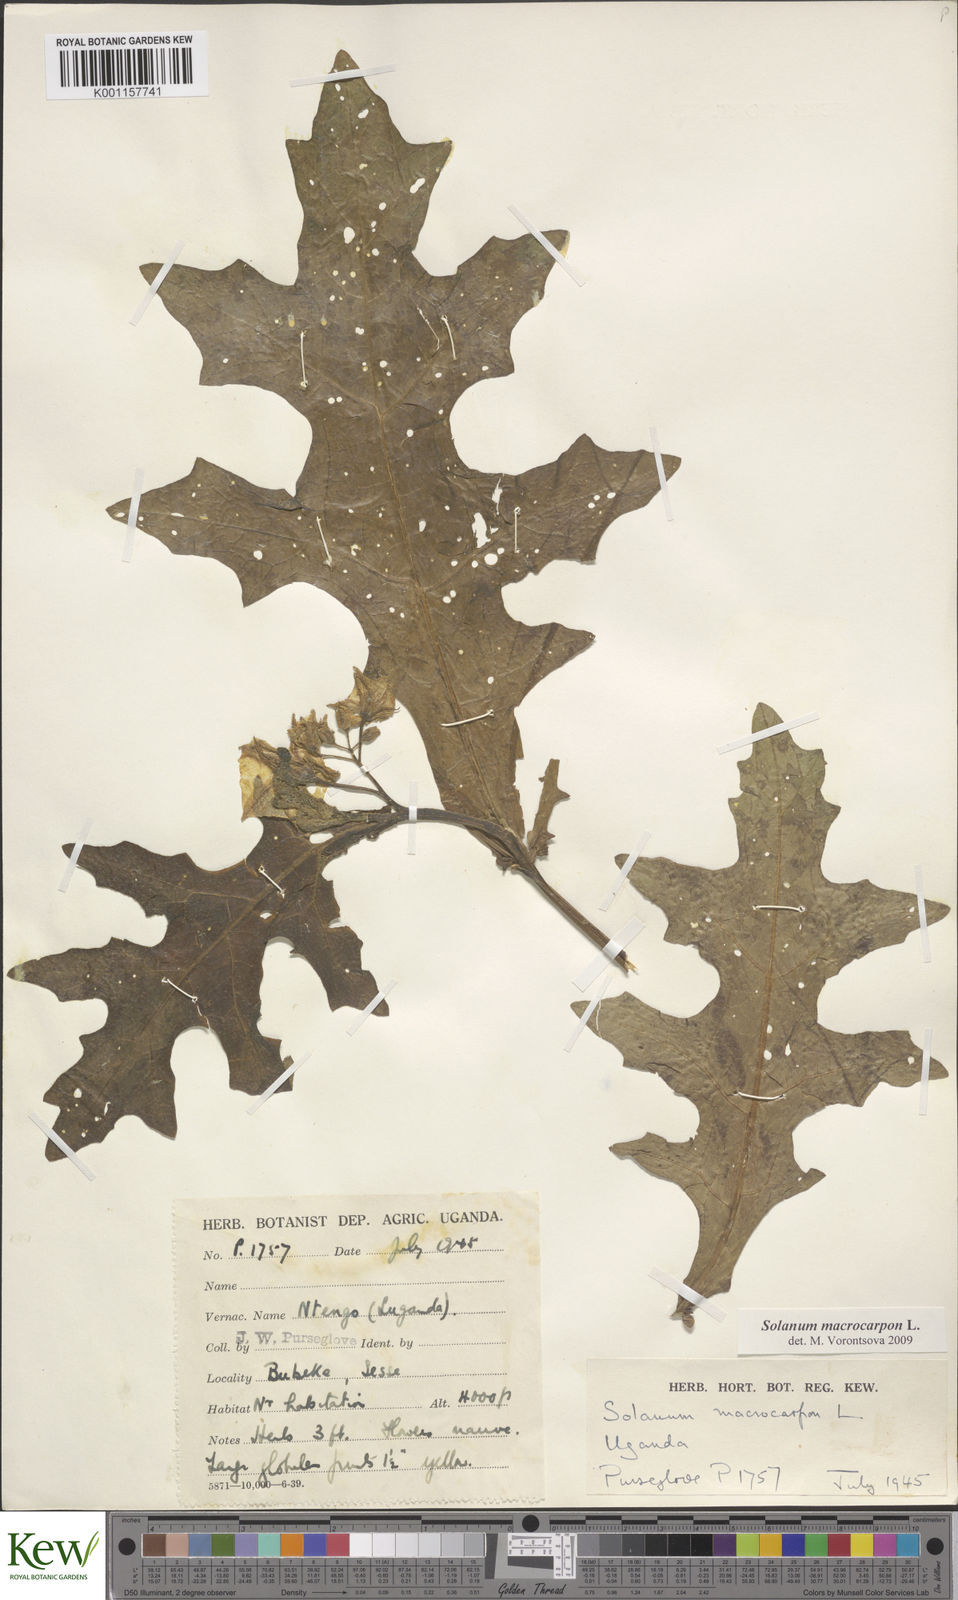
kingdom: Plantae
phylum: Tracheophyta
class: Magnoliopsida
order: Solanales
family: Solanaceae
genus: Solanum
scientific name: Solanum macrocarpon
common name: African eggplant
